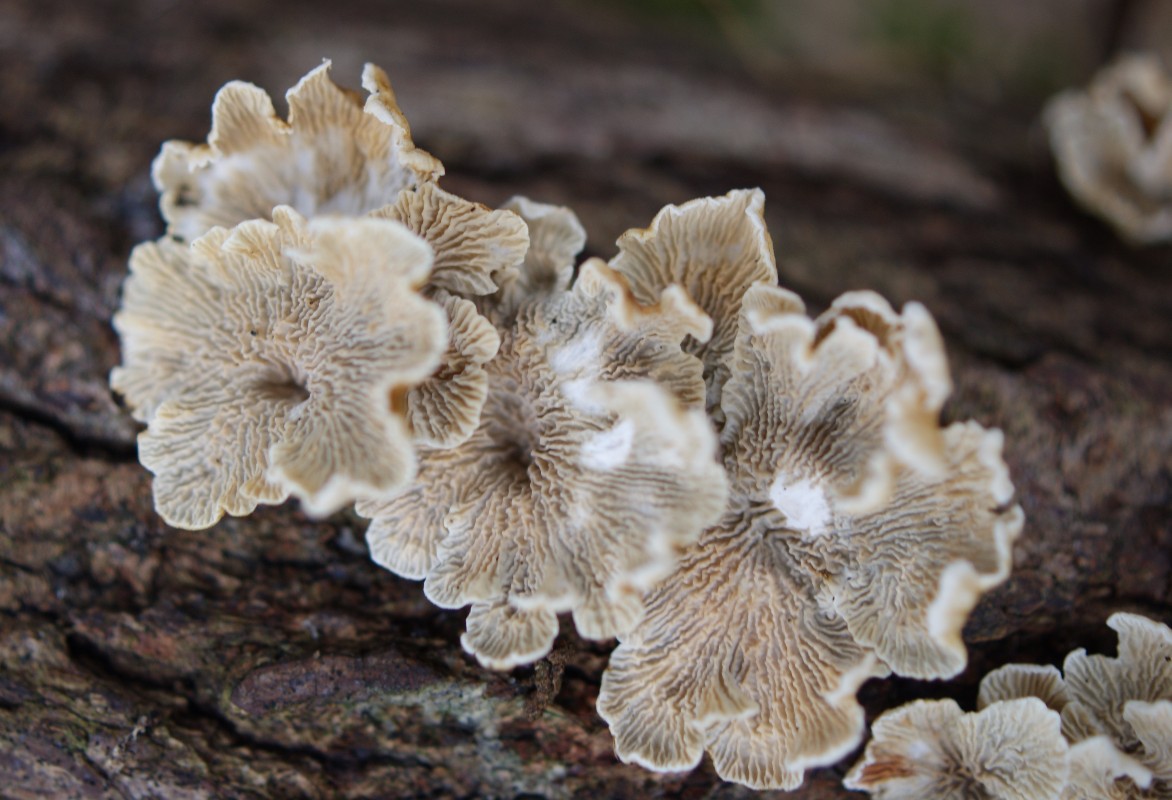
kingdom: Fungi
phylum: Basidiomycota
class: Agaricomycetes
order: Amylocorticiales
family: Amylocorticiaceae
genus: Plicaturopsis
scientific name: Plicaturopsis crispa
